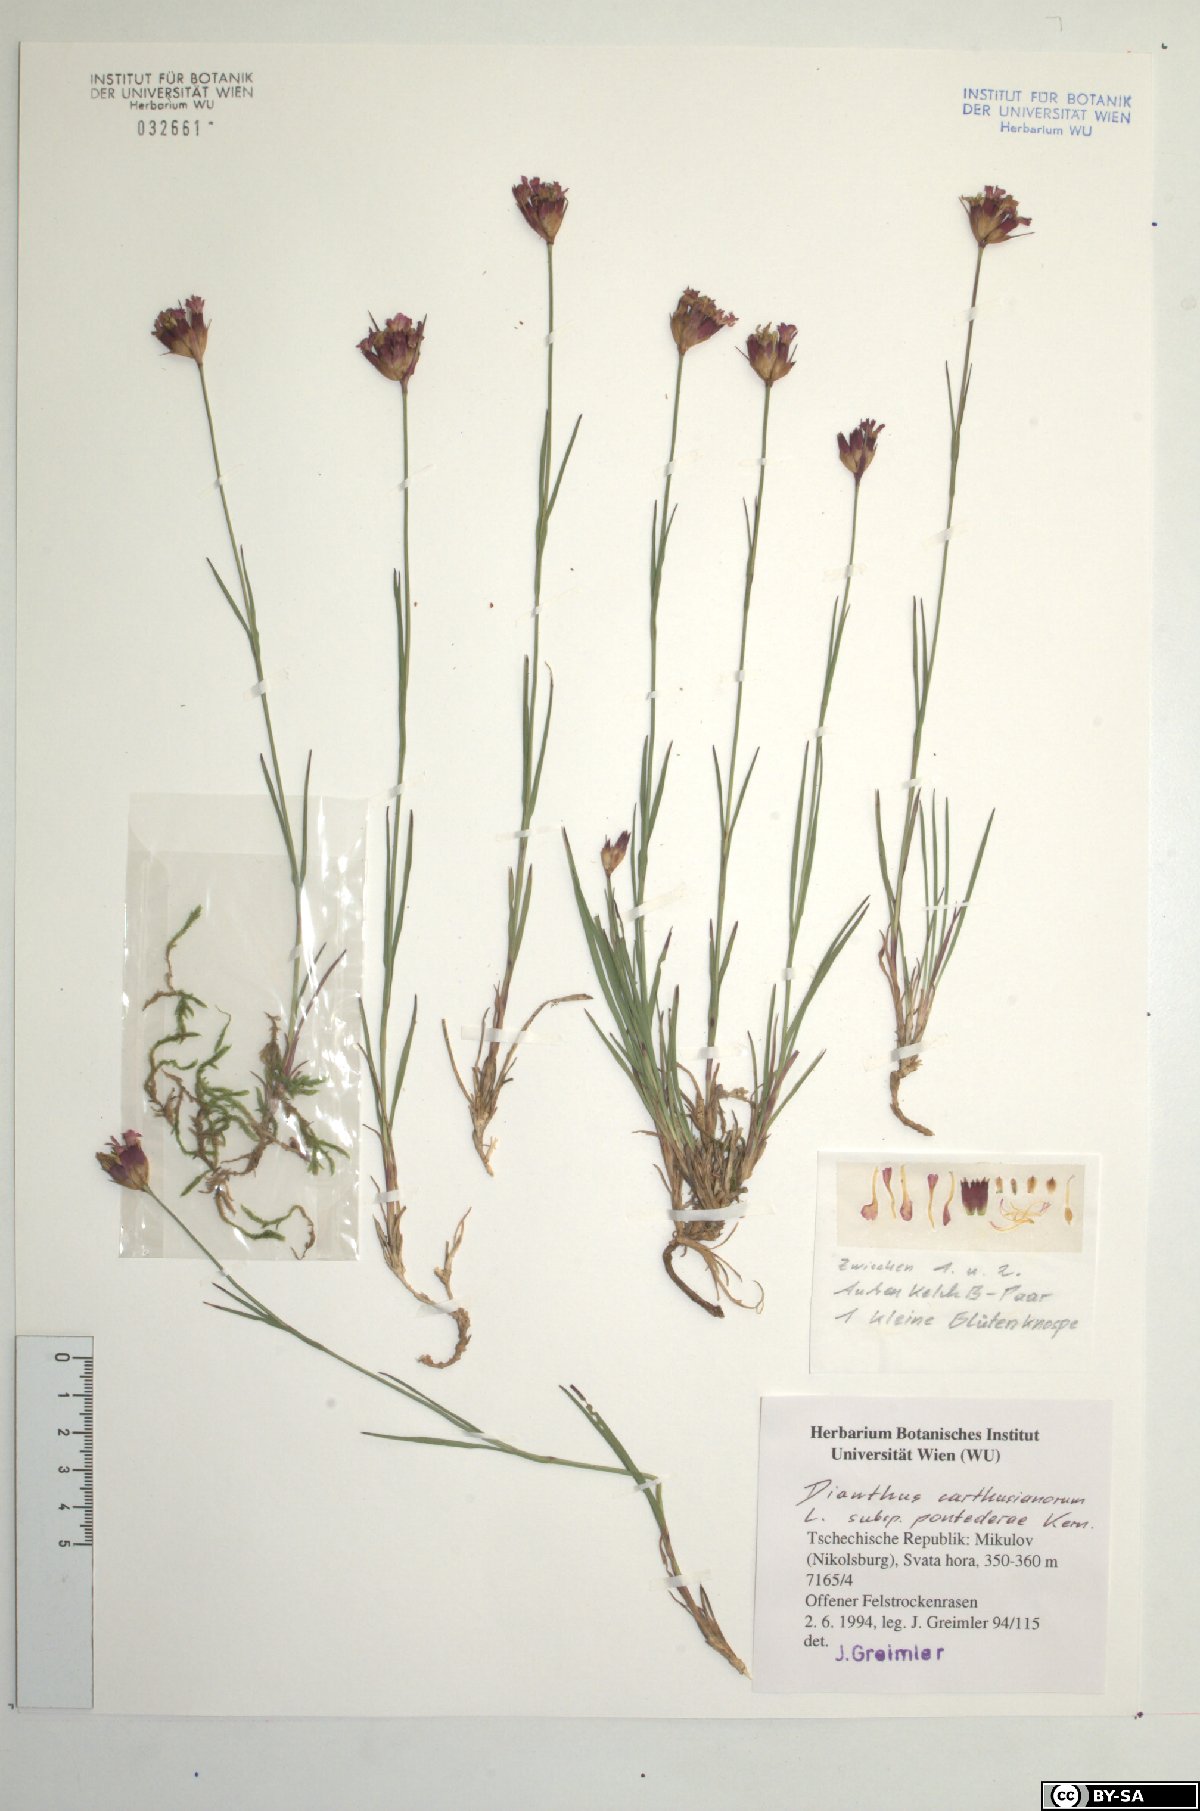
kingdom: Plantae
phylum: Tracheophyta
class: Magnoliopsida
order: Caryophyllales
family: Caryophyllaceae
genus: Dianthus
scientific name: Dianthus pontederae
